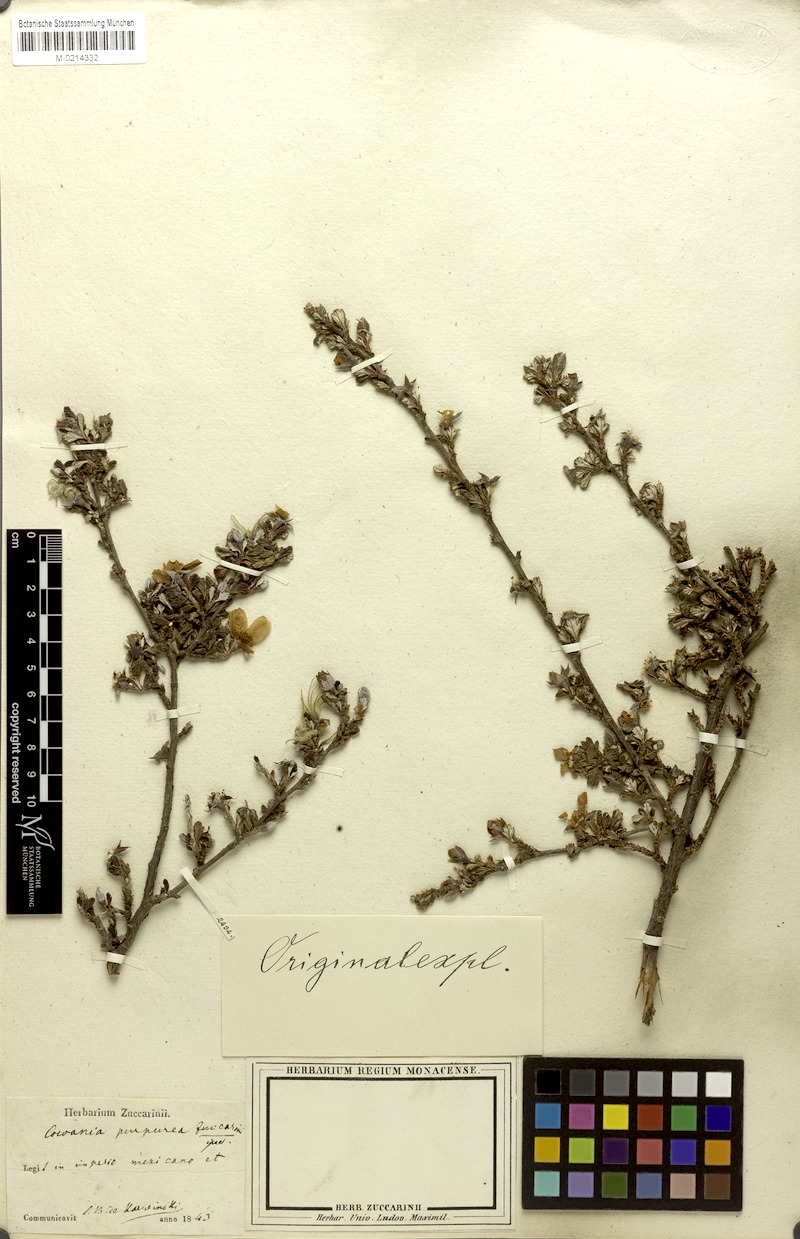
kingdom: Plantae
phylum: Tracheophyta
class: Magnoliopsida
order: Rosales
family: Rosaceae
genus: Purshia
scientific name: Purshia mexicana
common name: Mexican cliffrose
